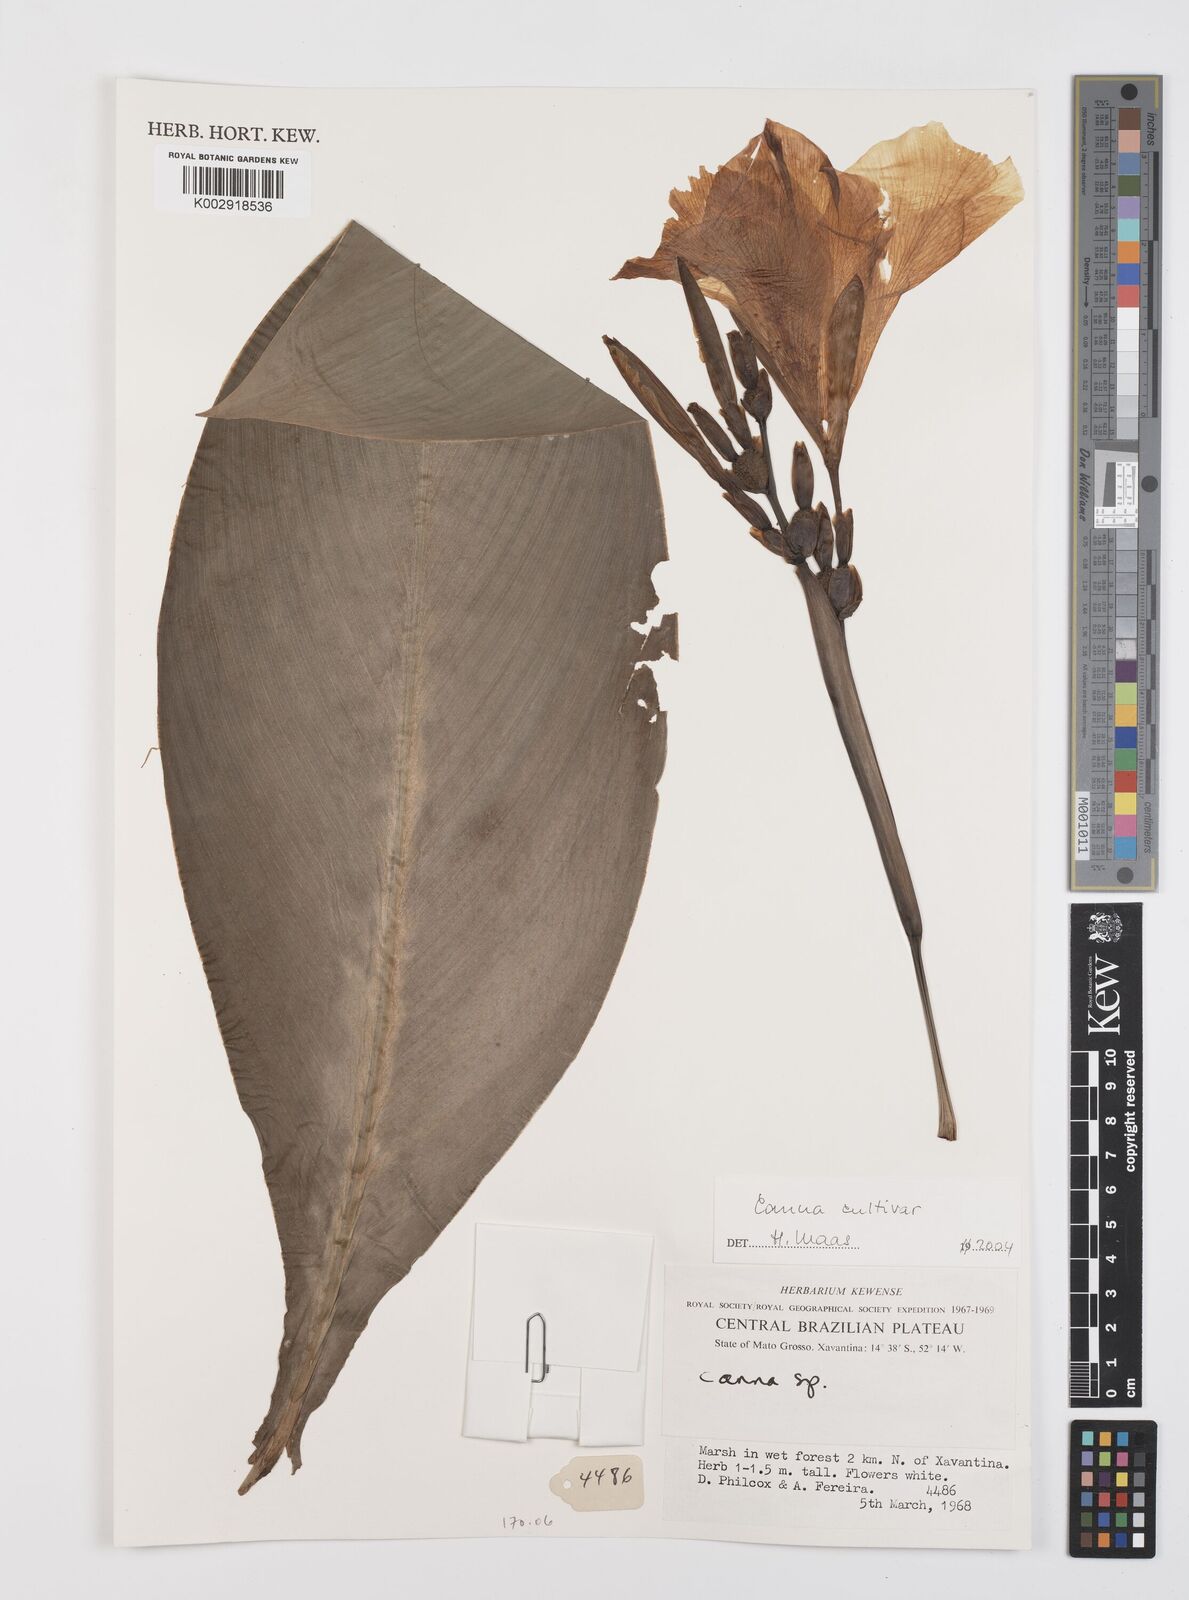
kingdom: Plantae
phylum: Tracheophyta
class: Liliopsida
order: Zingiberales
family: Cannaceae
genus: Canna
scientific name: Canna
